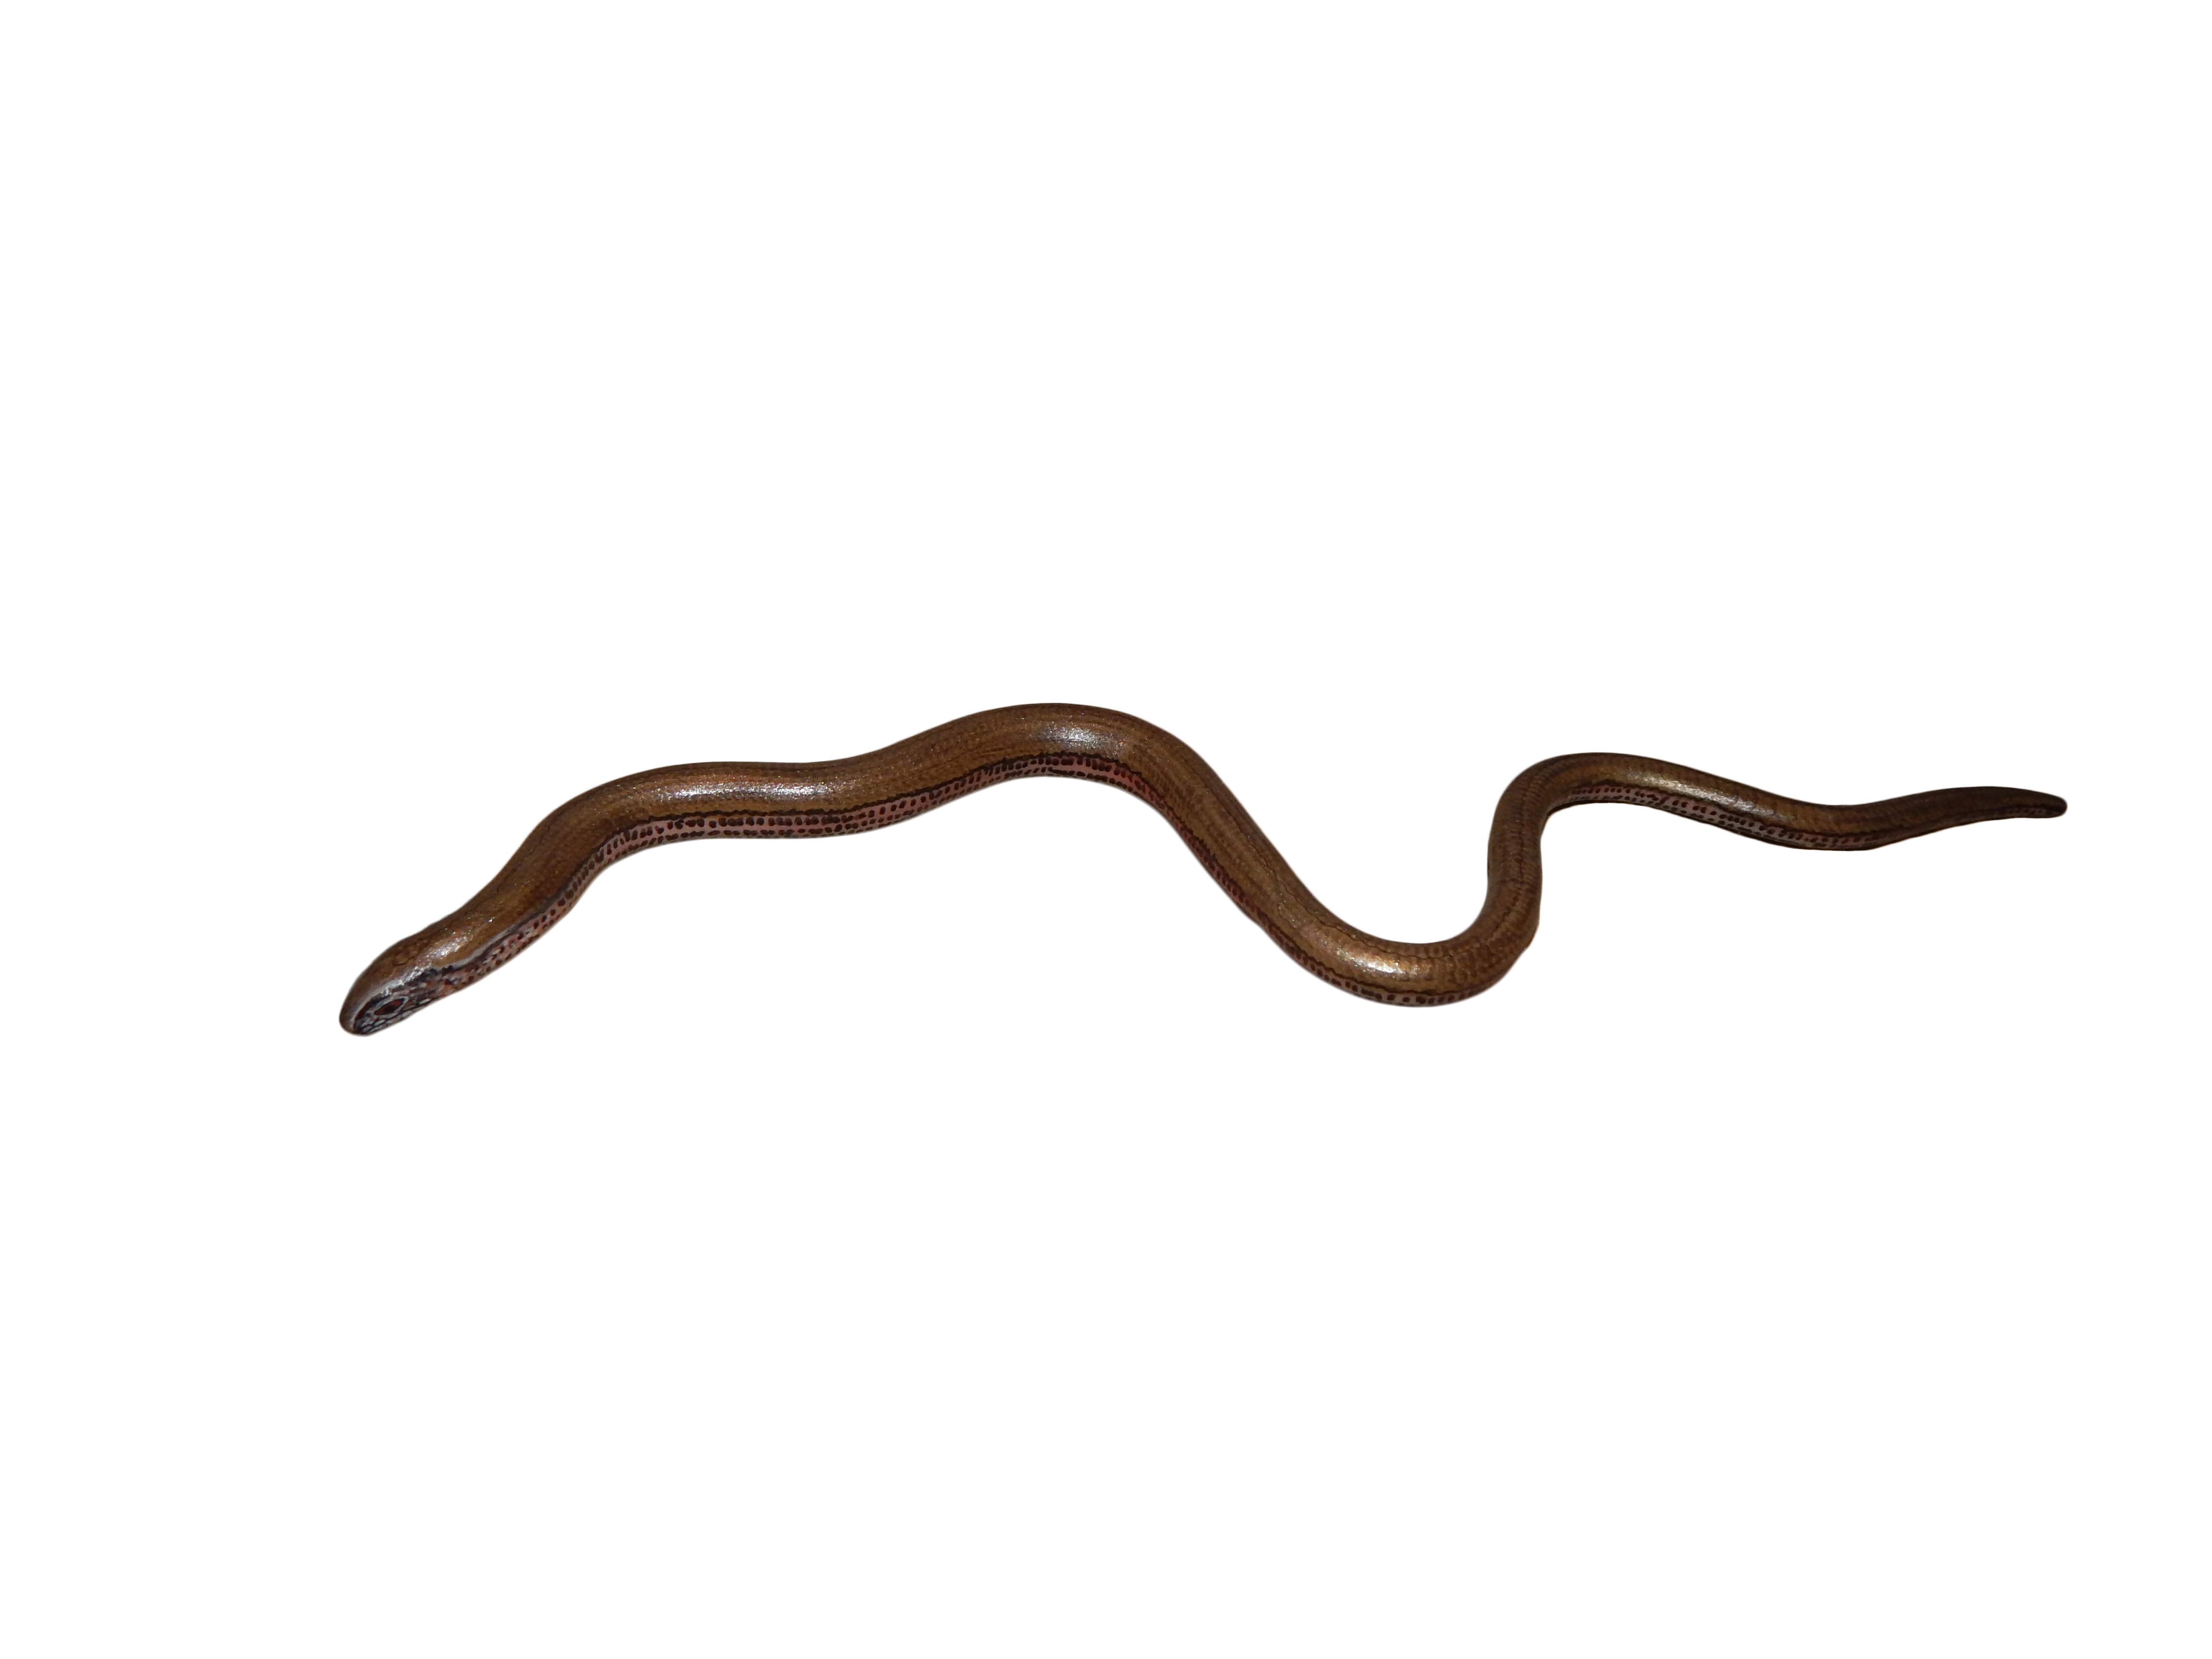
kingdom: Animalia
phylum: Chordata
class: Squamata
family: Anguidae
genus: Anguis
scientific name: Anguis fragilis
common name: Slow worm
